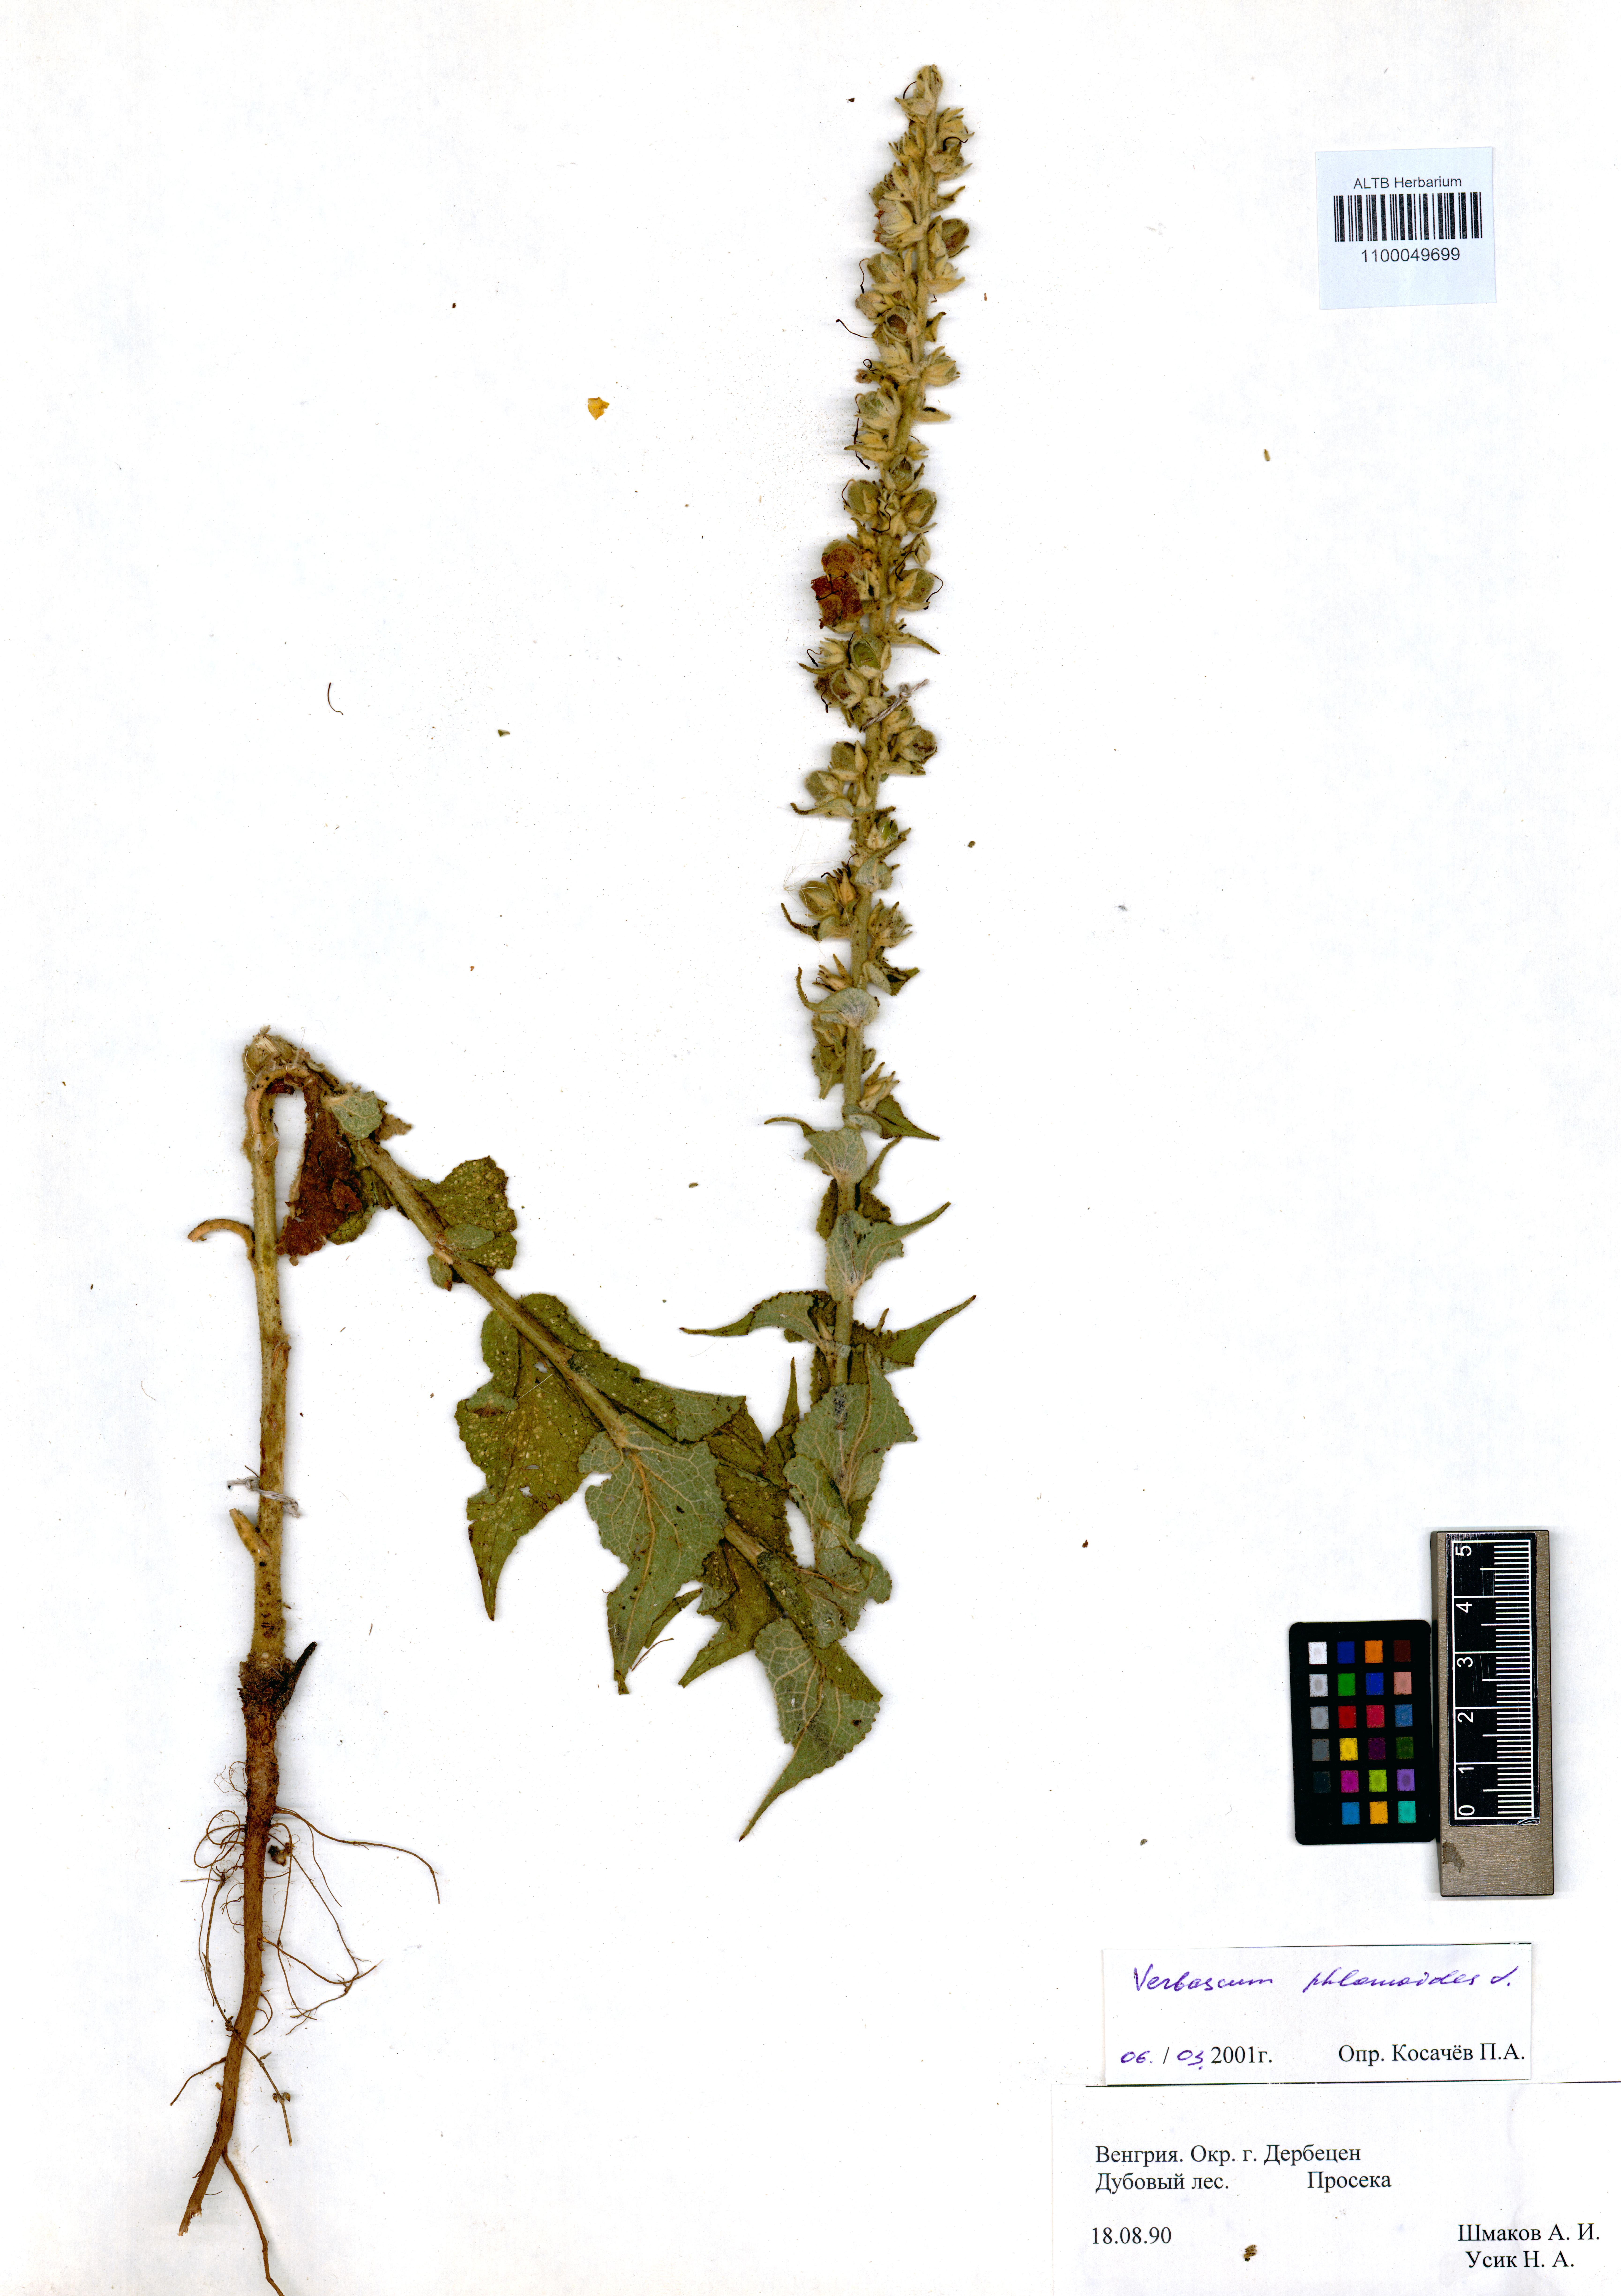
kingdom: Plantae
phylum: Tracheophyta
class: Magnoliopsida
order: Lamiales
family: Scrophulariaceae
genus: Verbascum
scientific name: Verbascum phlomoides
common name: Orange mullein
